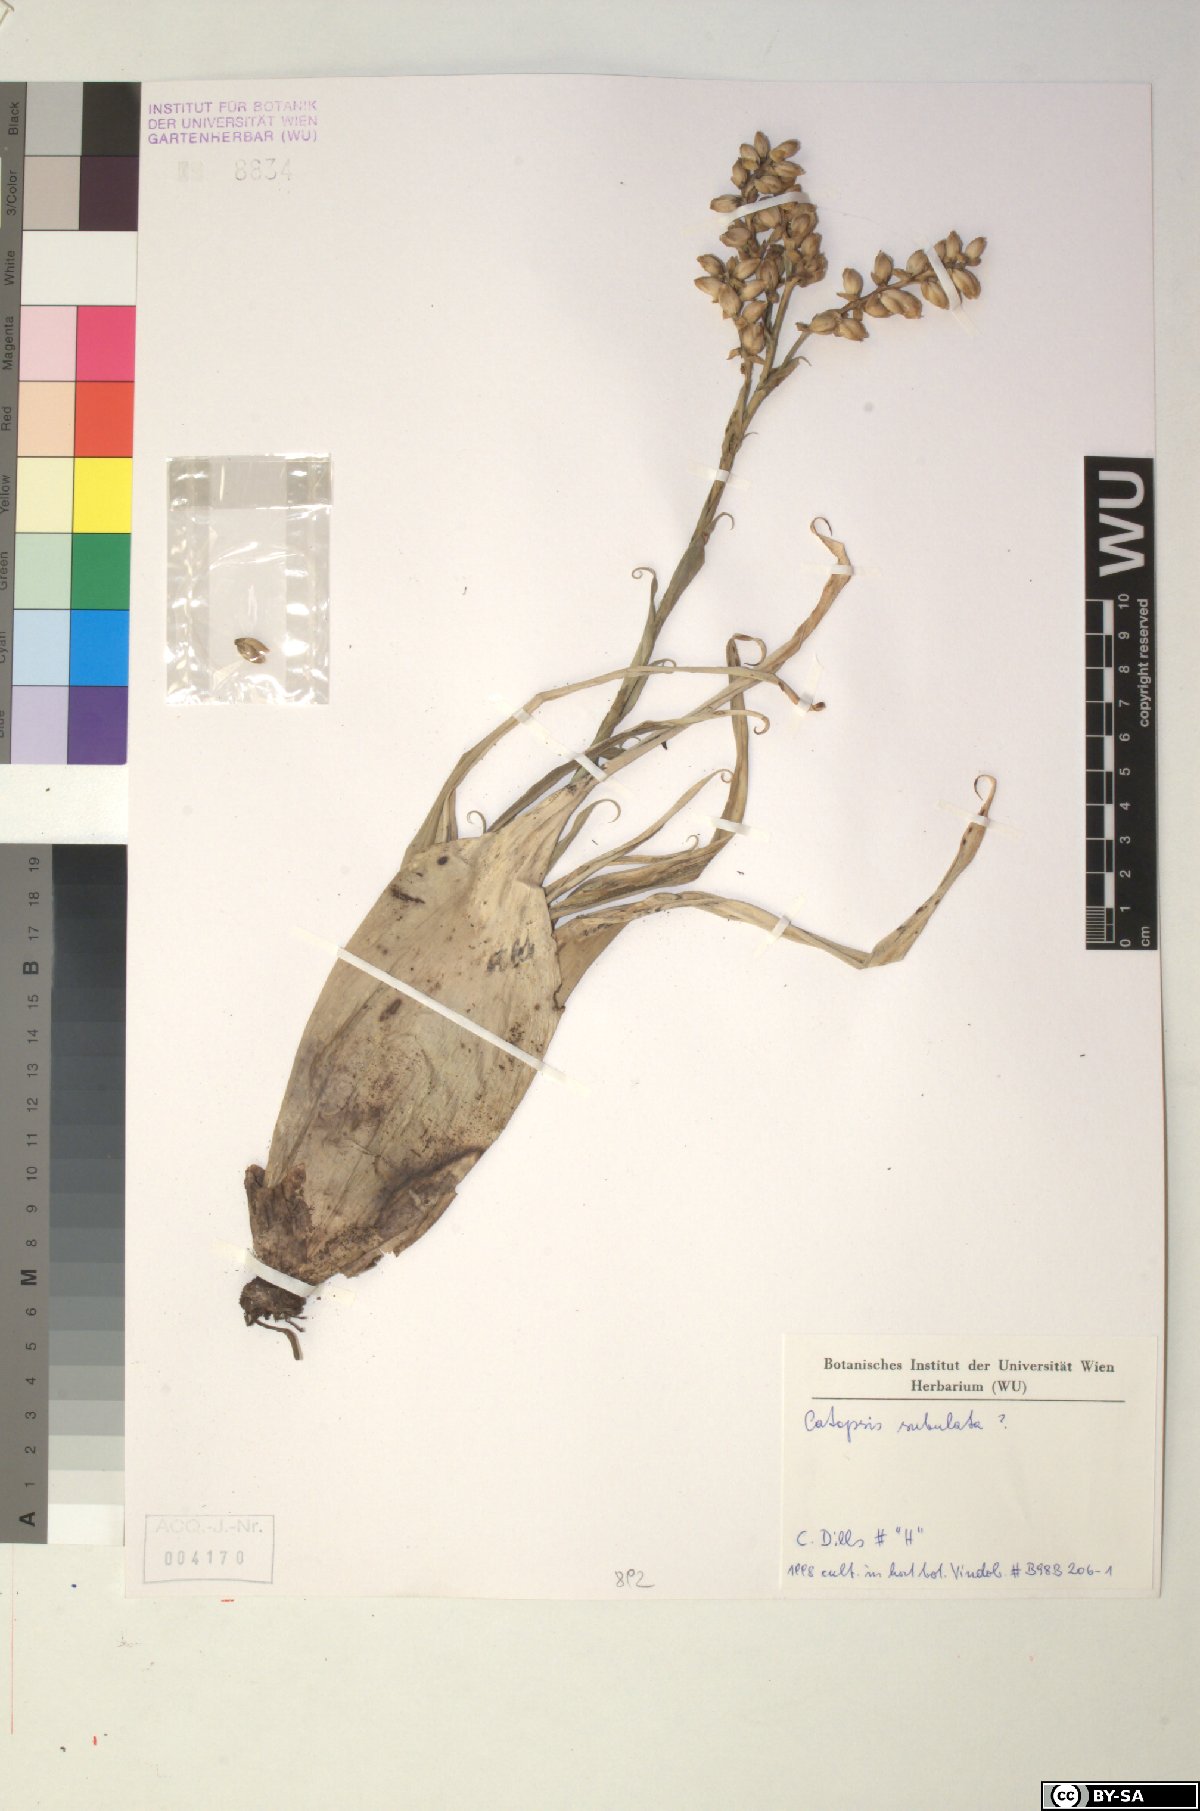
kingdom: Plantae
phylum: Tracheophyta
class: Liliopsida
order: Poales
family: Bromeliaceae
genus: Catopsis
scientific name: Catopsis subulata
